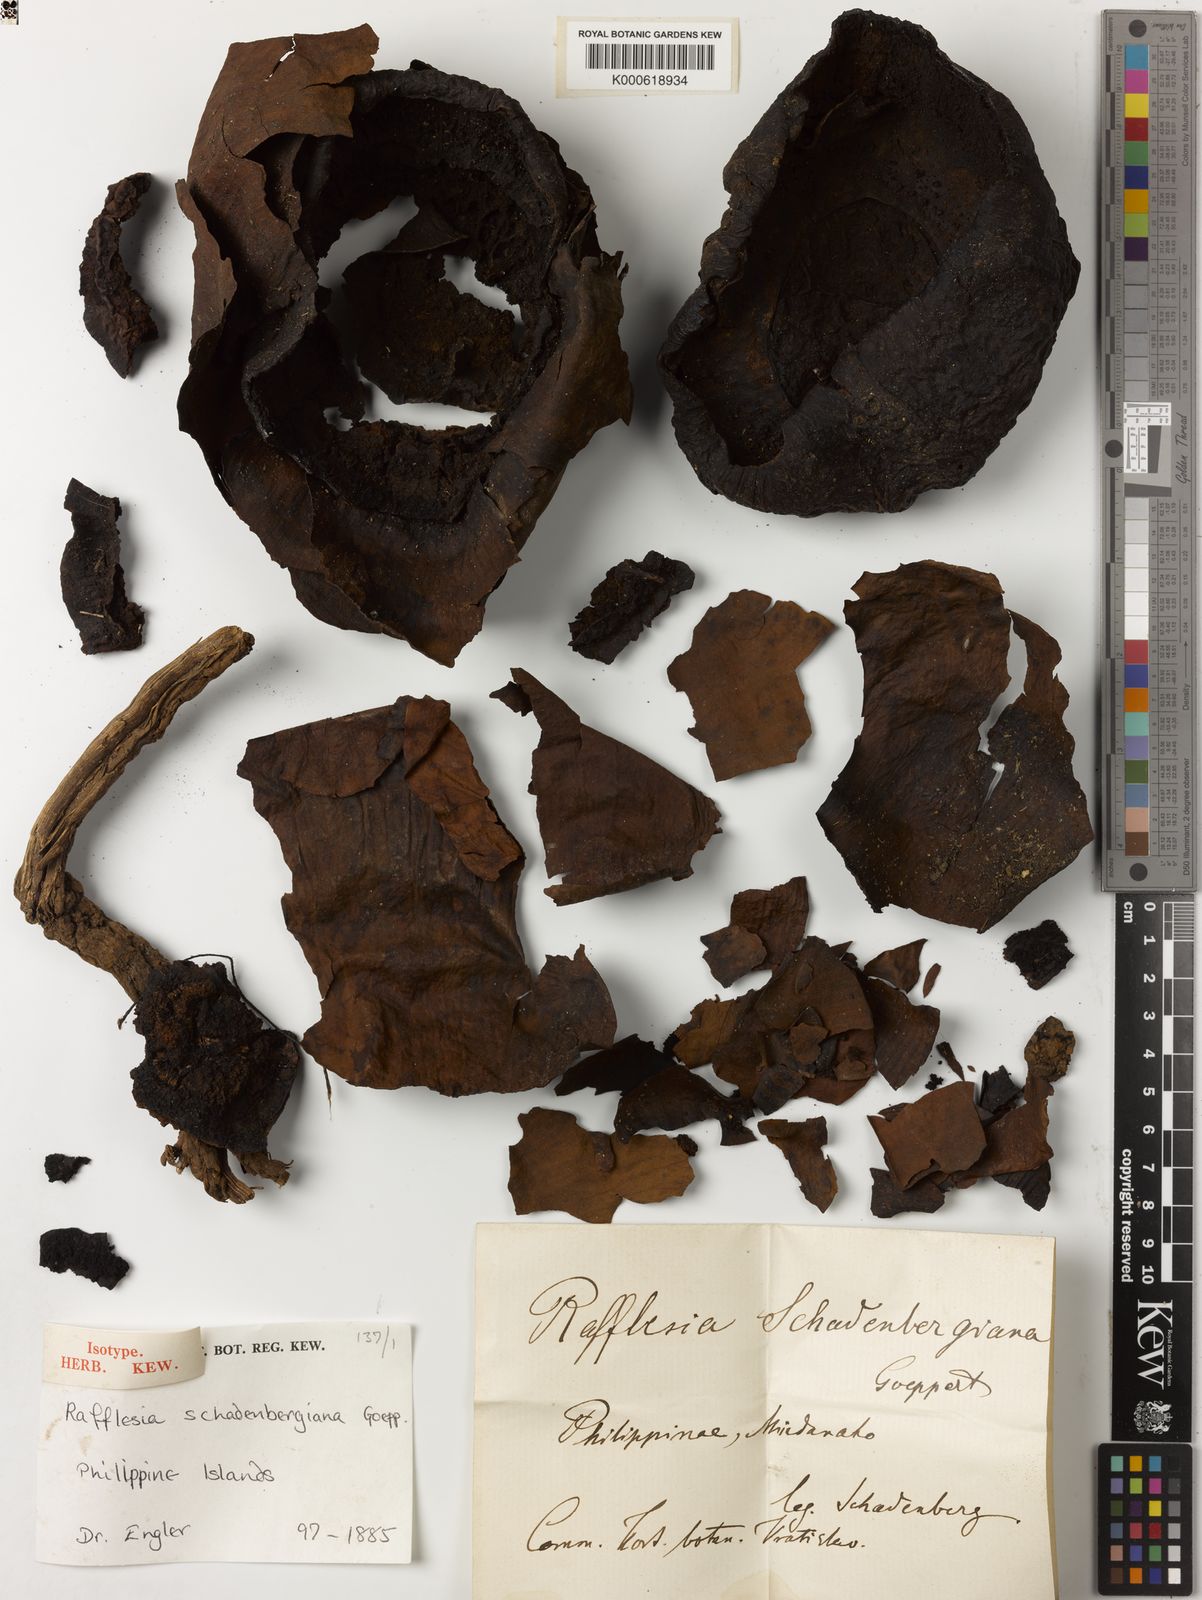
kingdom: Plantae
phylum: Tracheophyta
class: Magnoliopsida
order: Malpighiales
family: Rafflesiaceae
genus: Rafflesia
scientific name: Rafflesia
